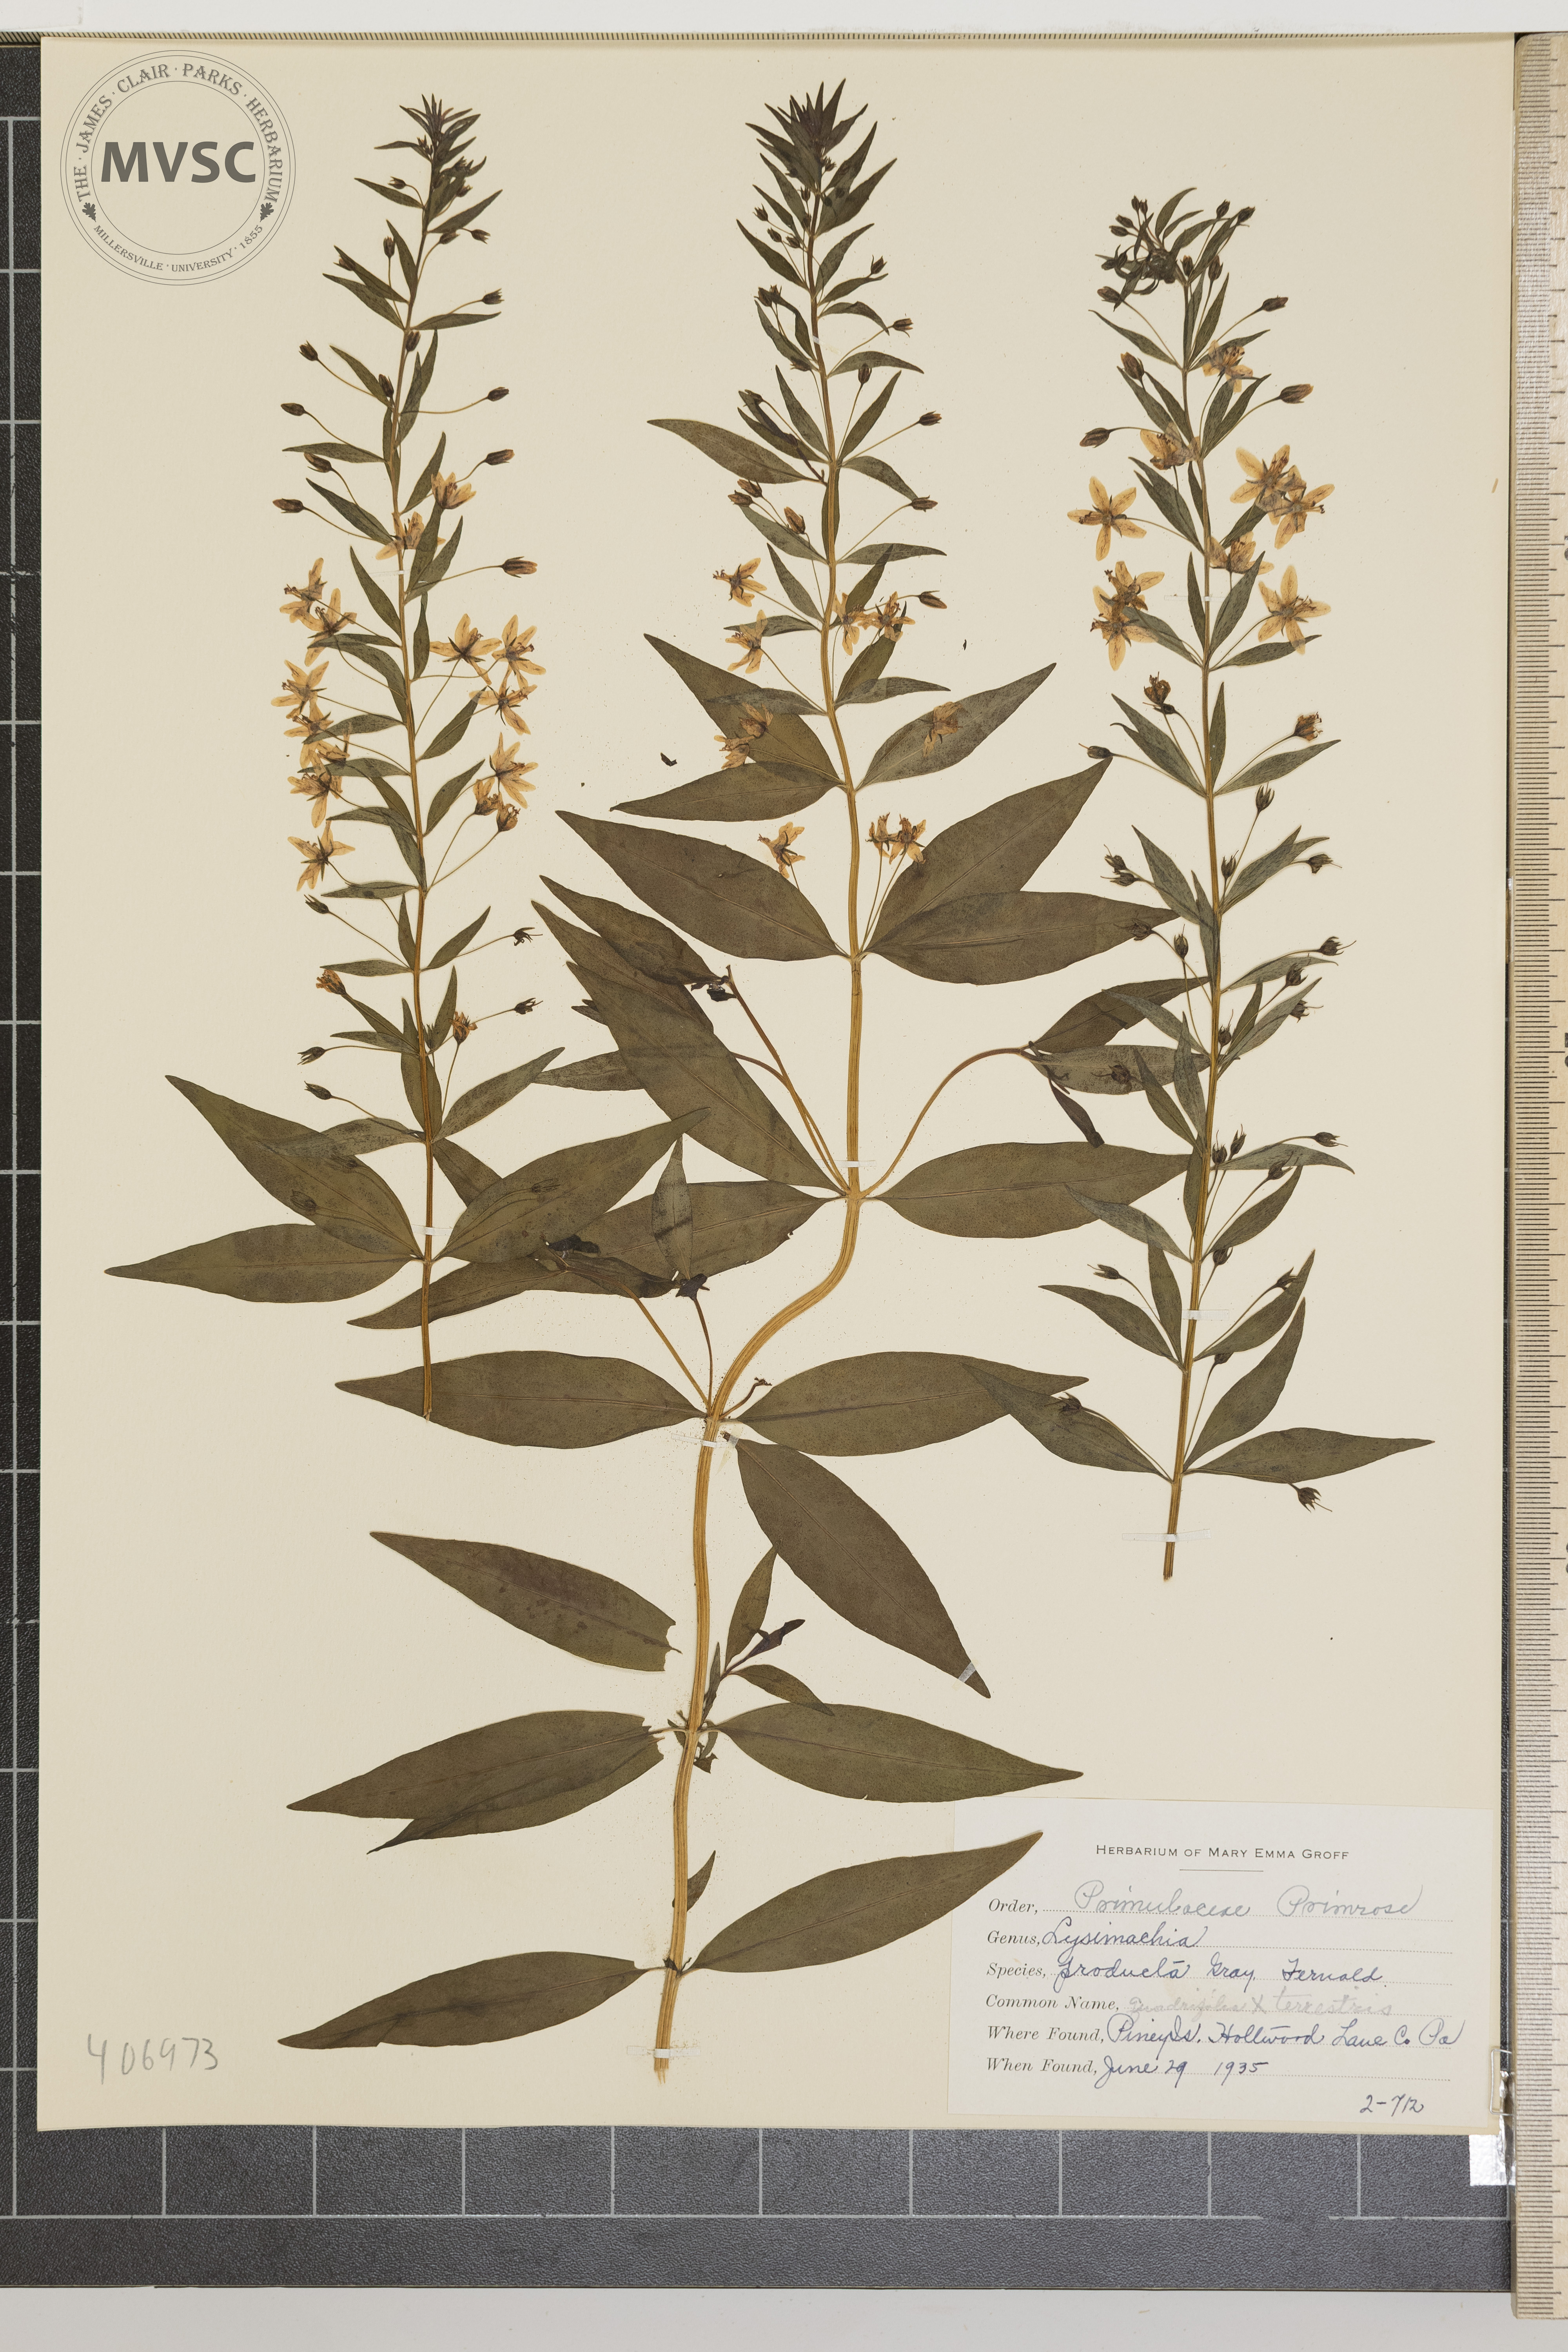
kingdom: Plantae
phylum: Tracheophyta
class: Magnoliopsida
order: Ericales
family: Primulaceae
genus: Lysimachia
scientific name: Lysimachia producta
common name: Loosestrife
